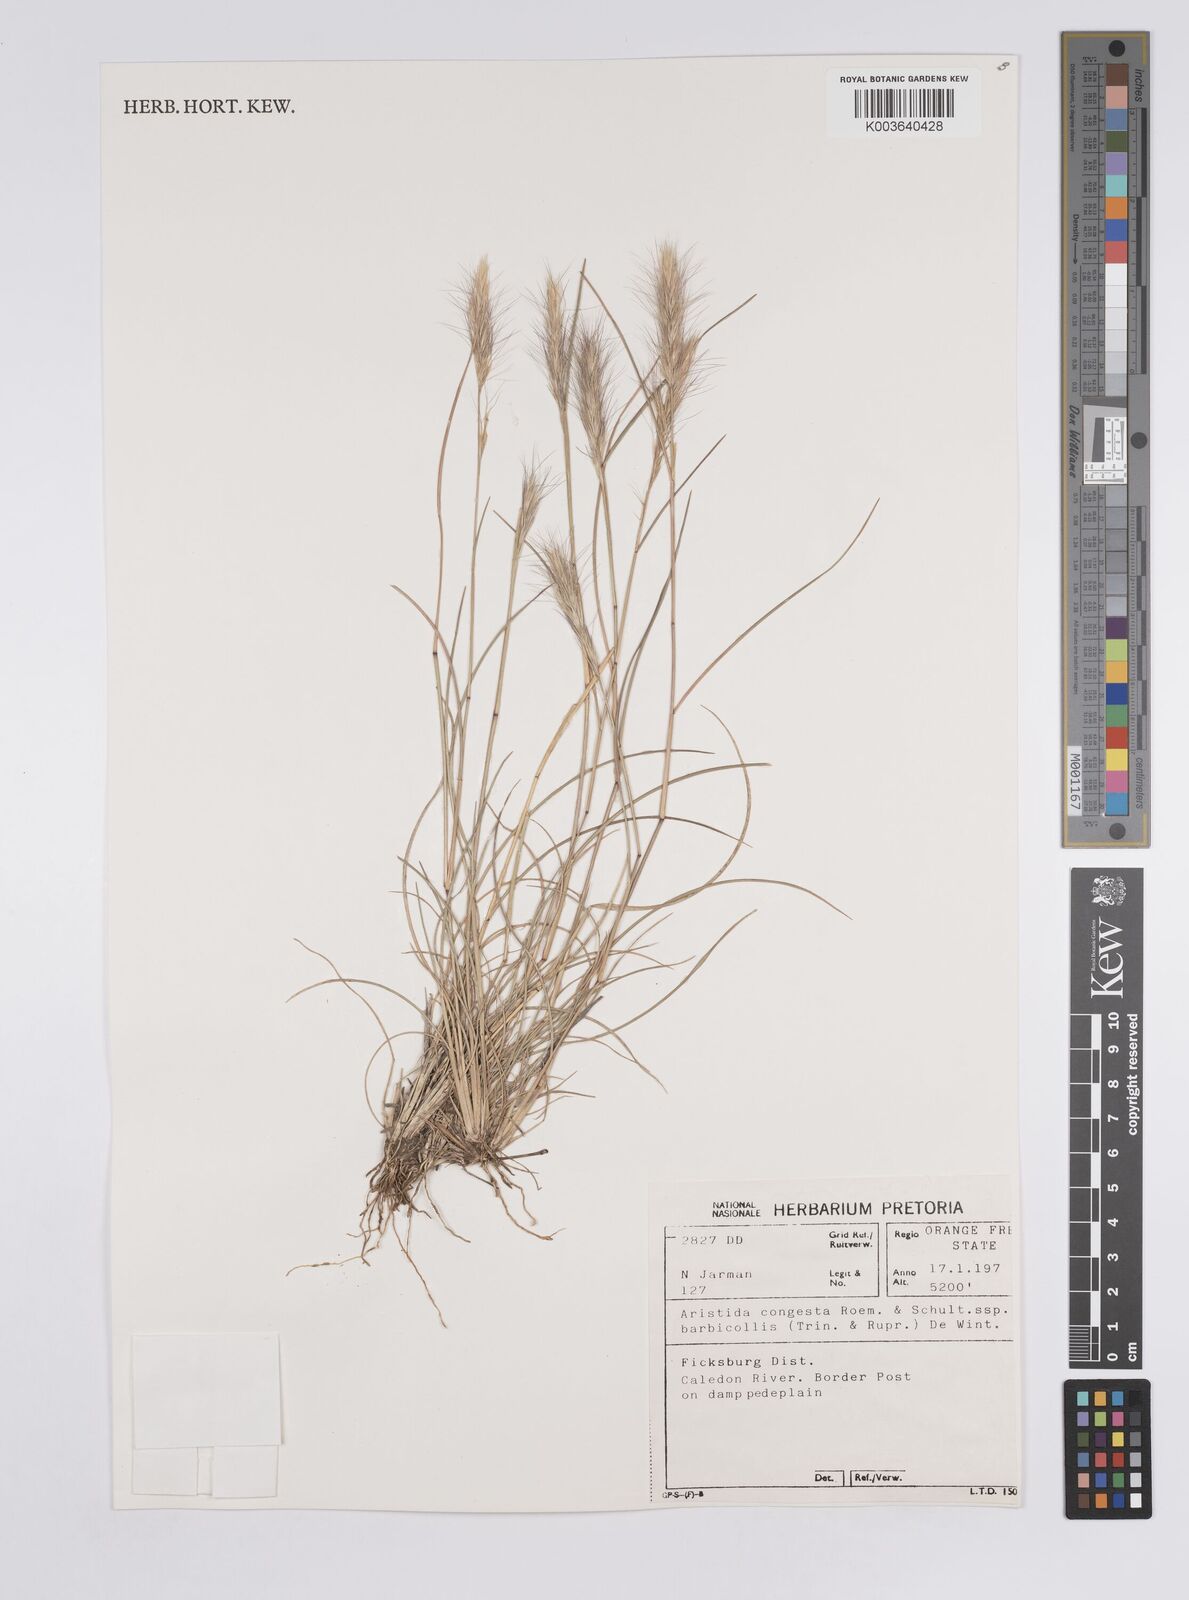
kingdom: Plantae
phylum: Tracheophyta
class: Liliopsida
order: Poales
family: Poaceae
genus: Aristida
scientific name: Aristida barbicollis
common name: Spreading prickle grass
